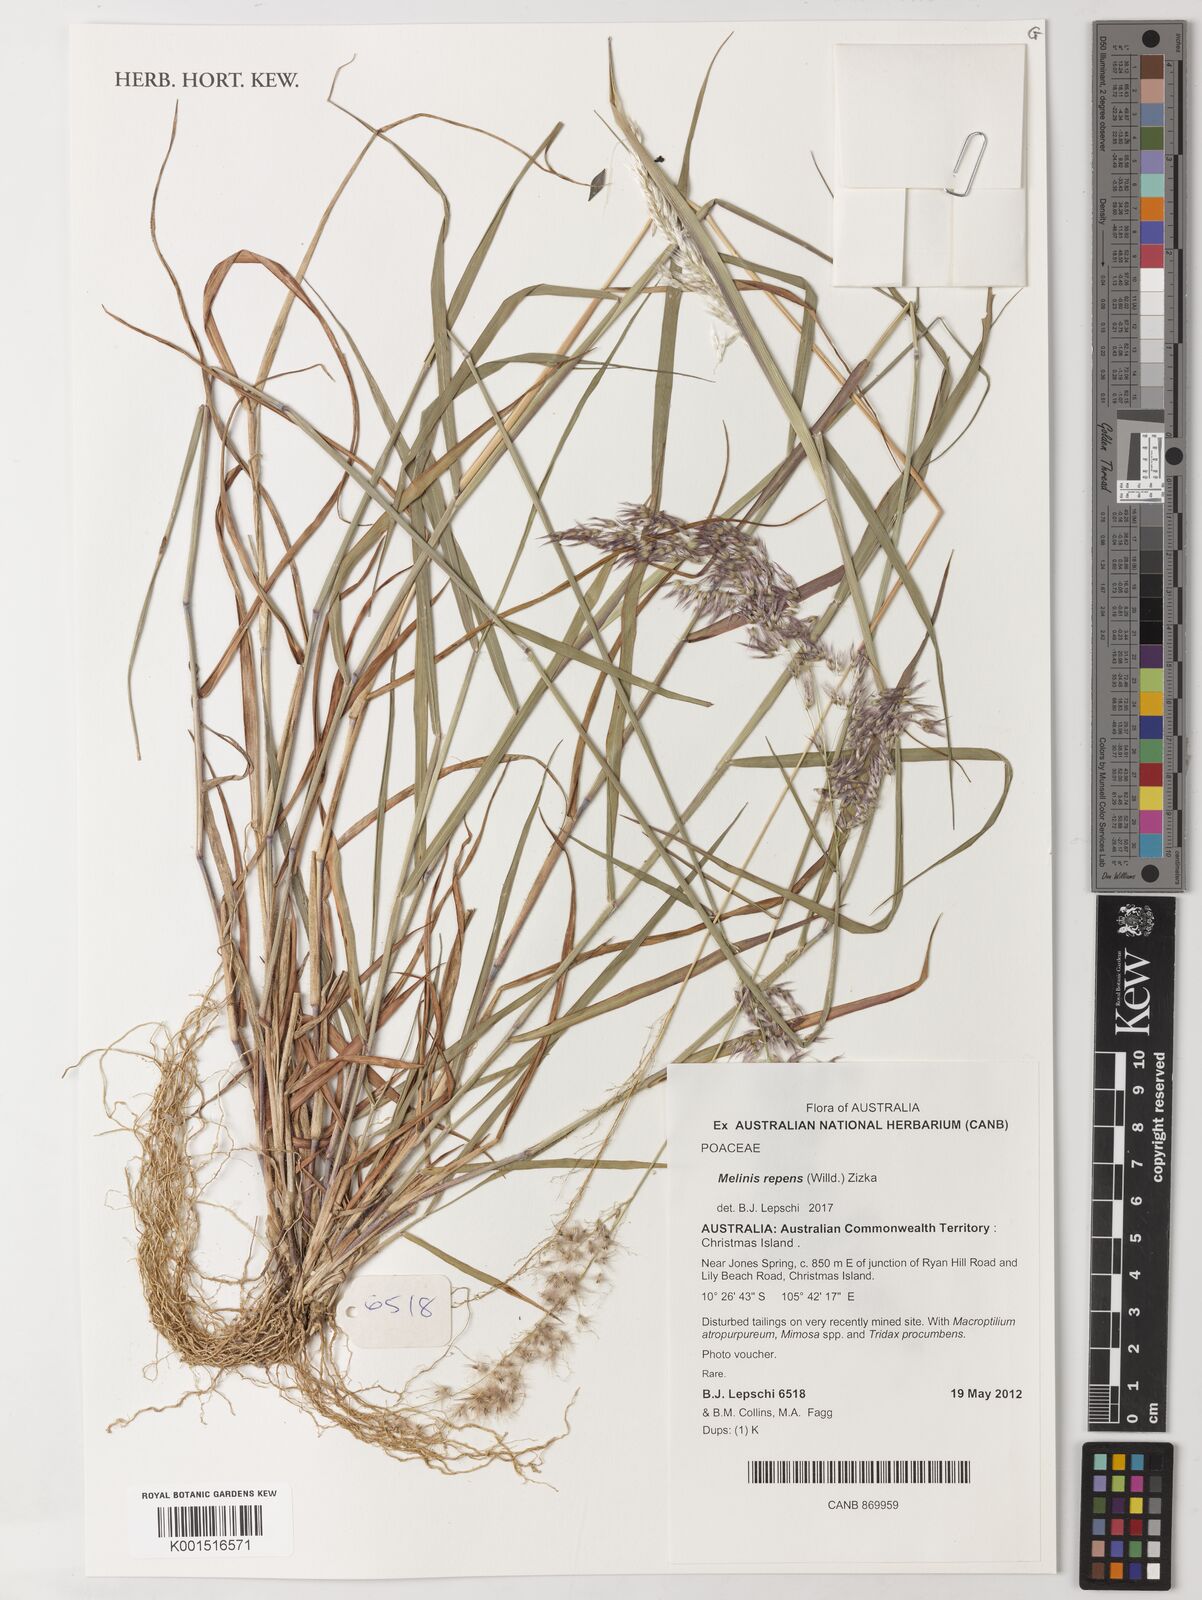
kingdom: Plantae
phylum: Tracheophyta
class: Liliopsida
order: Poales
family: Poaceae
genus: Melinis
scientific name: Melinis repens
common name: Rose natal grass
